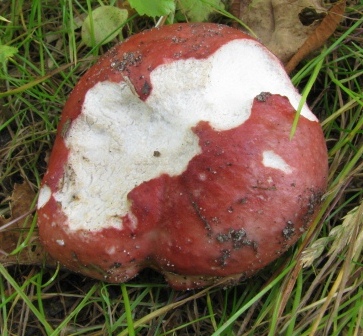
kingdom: Fungi
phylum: Basidiomycota
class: Agaricomycetes
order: Russulales
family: Russulaceae
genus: Russula
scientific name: Russula depallens
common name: falmende skørhat
